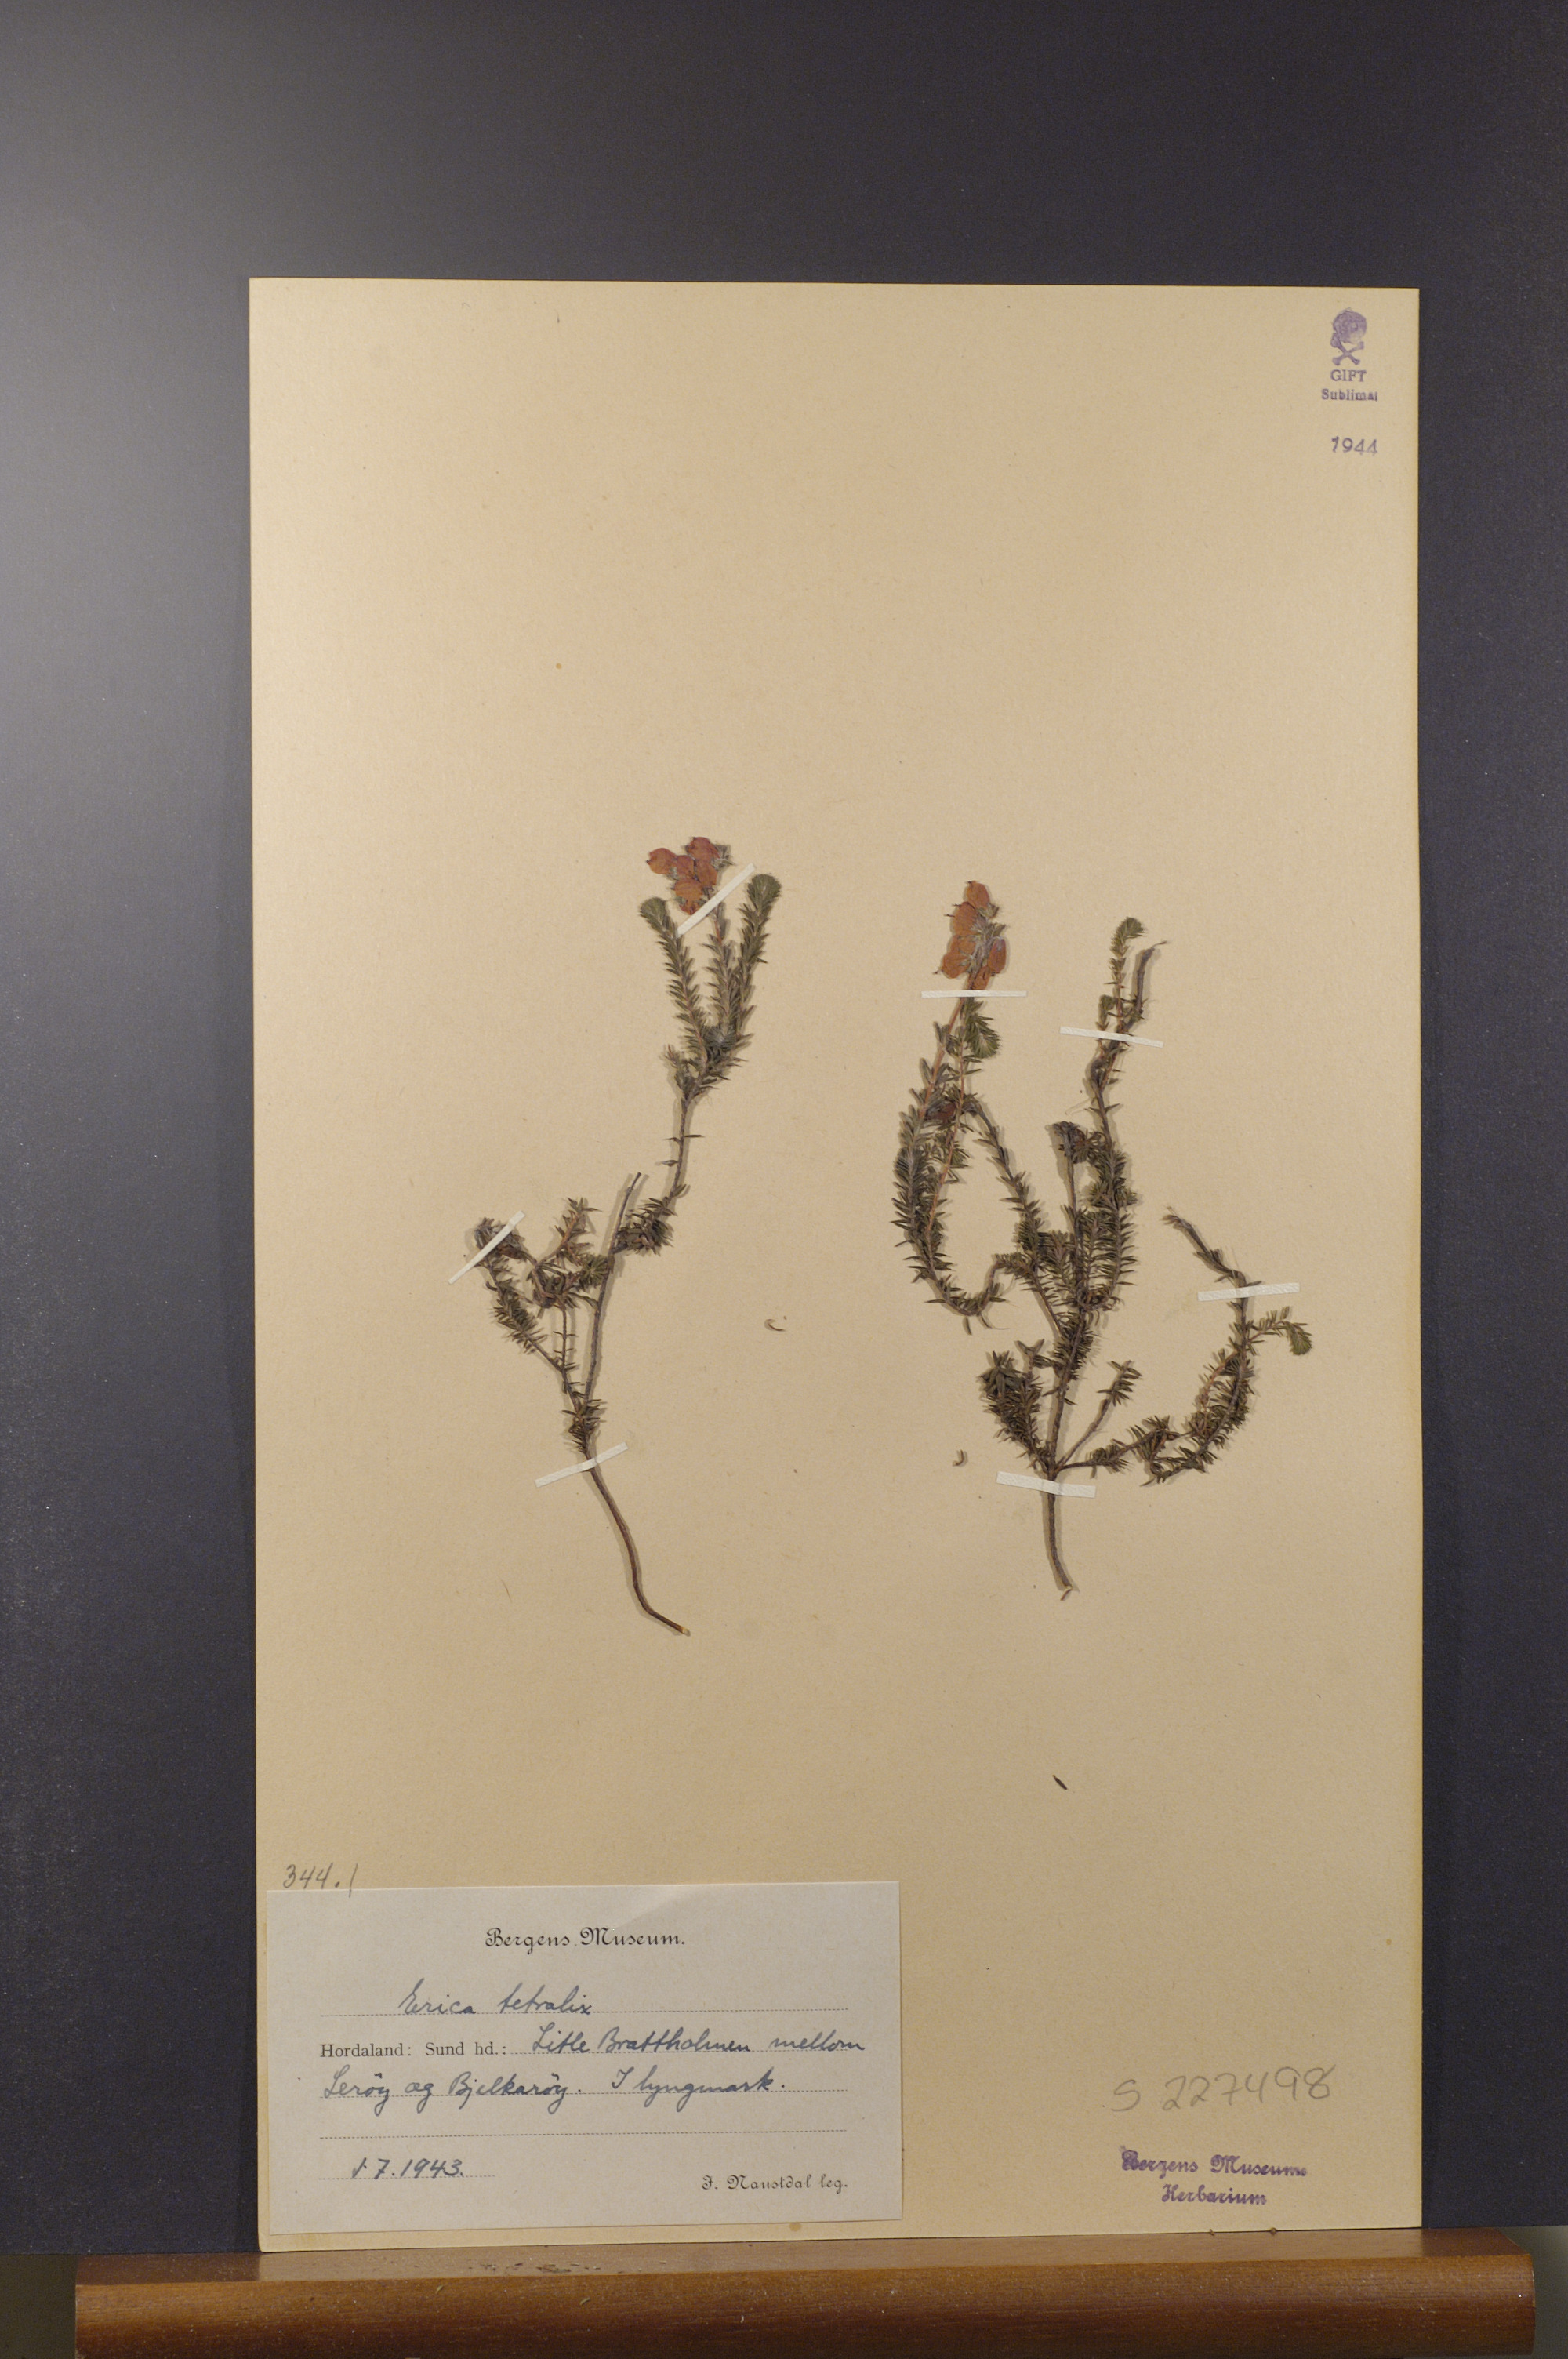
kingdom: Plantae
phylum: Tracheophyta
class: Magnoliopsida
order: Ericales
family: Ericaceae
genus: Erica
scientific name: Erica tetralix
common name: Cross-leaved heath
